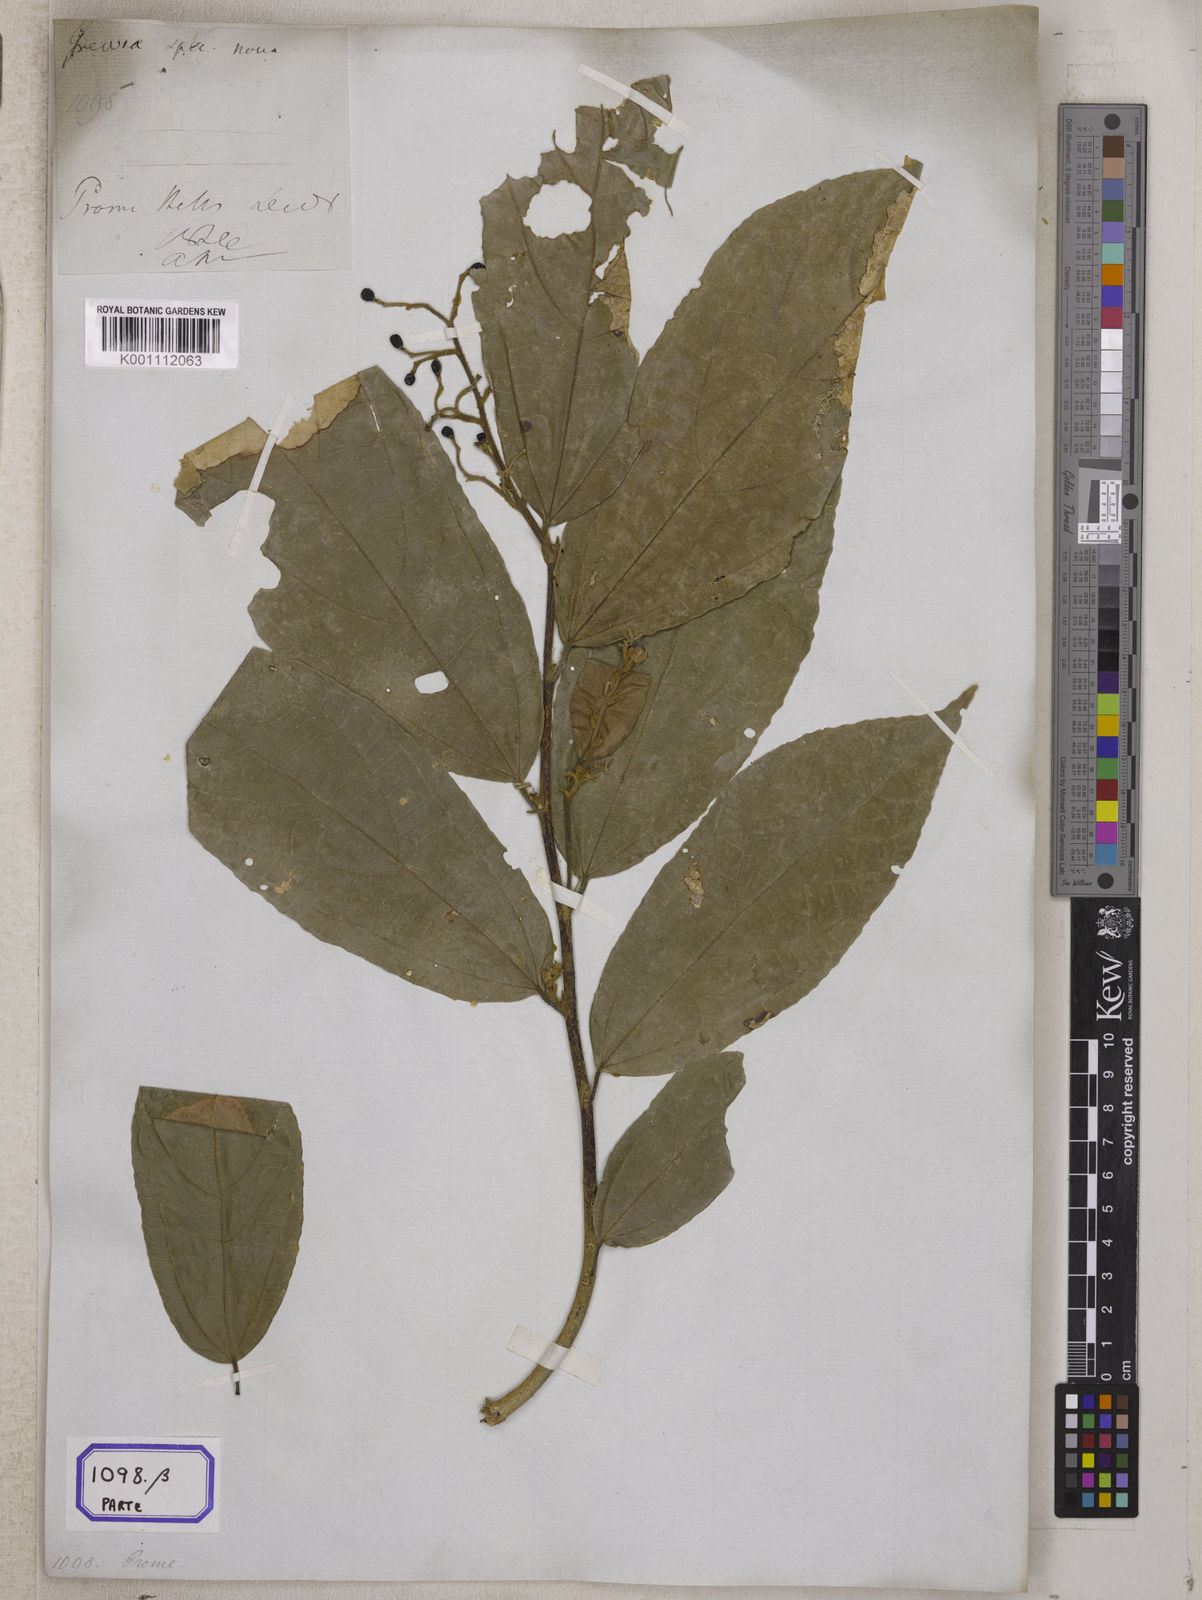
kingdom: Plantae
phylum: Tracheophyta
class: Magnoliopsida
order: Malvales
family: Malvaceae
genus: Grewia
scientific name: Grewia
